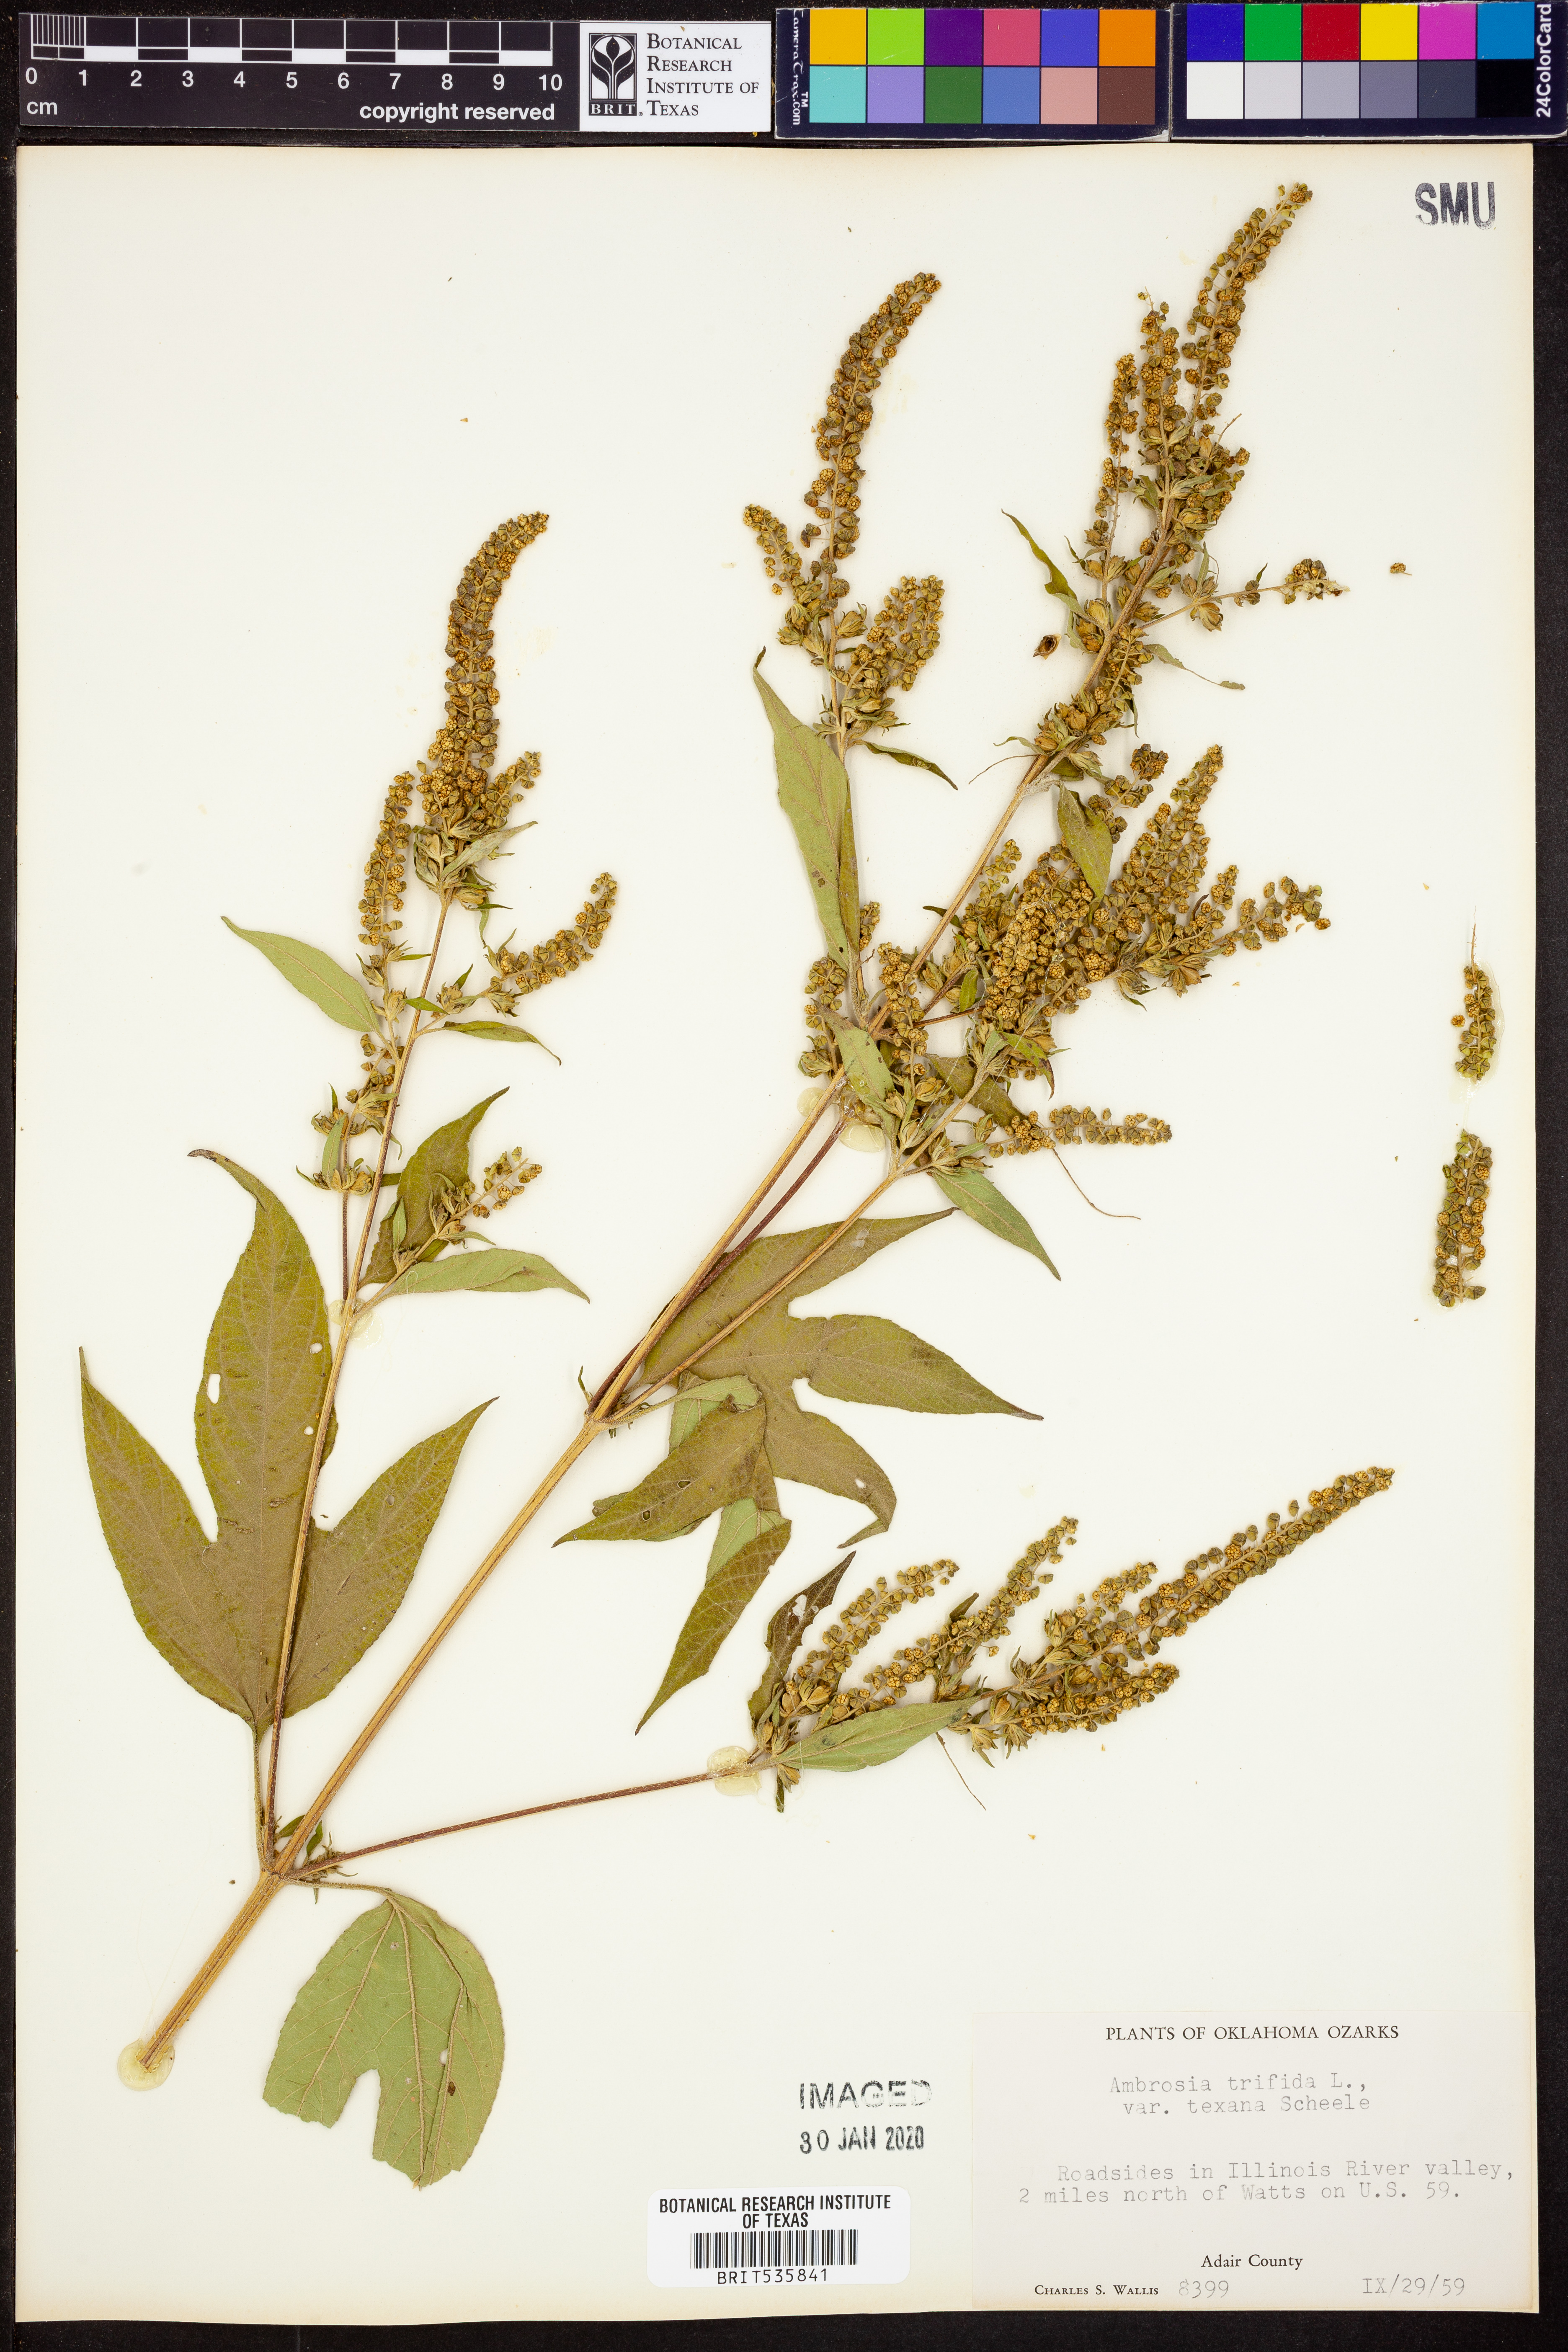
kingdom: Plantae
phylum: Tracheophyta
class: Magnoliopsida
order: Asterales
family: Asteraceae
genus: Ambrosia
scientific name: Ambrosia trifida
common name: Giant ragweed
